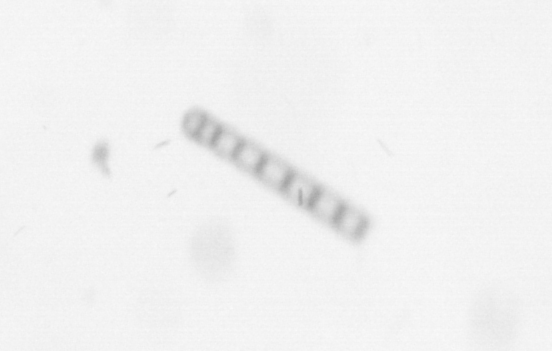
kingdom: Chromista
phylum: Ochrophyta
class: Bacillariophyceae
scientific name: Bacillariophyceae
